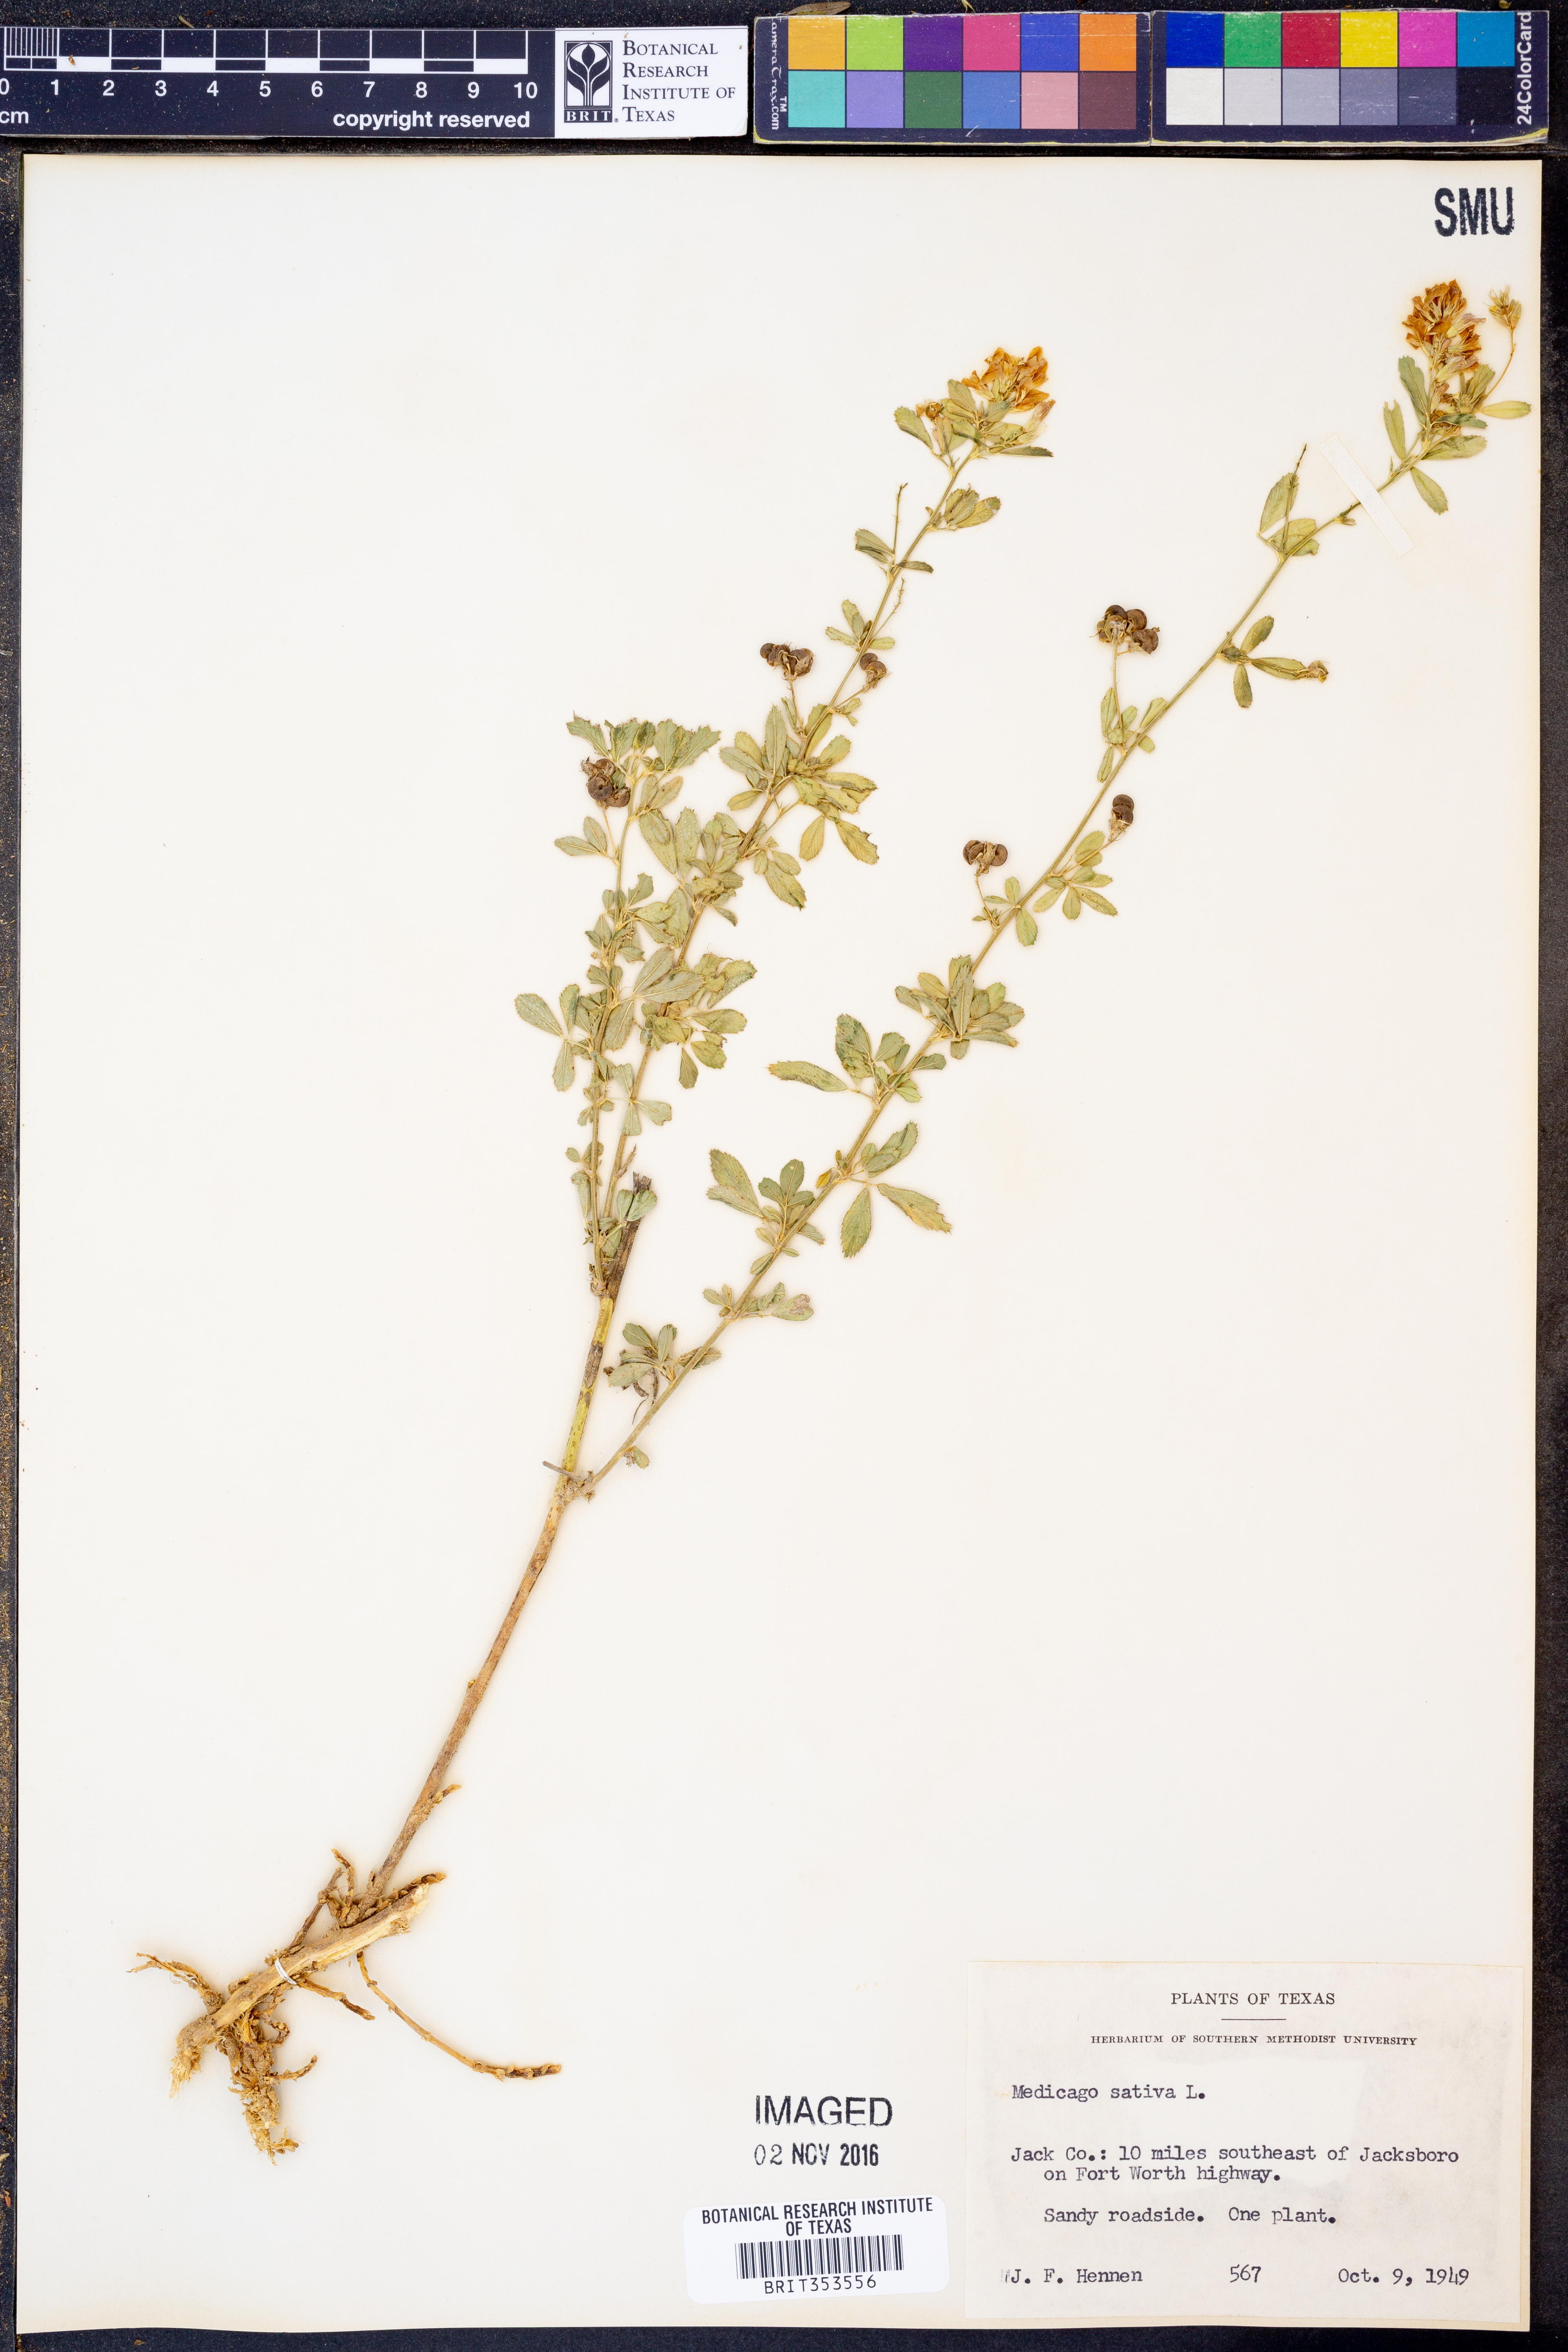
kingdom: Plantae
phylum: Tracheophyta
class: Magnoliopsida
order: Fabales
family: Fabaceae
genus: Medicago
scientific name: Medicago sativa
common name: Alfalfa
